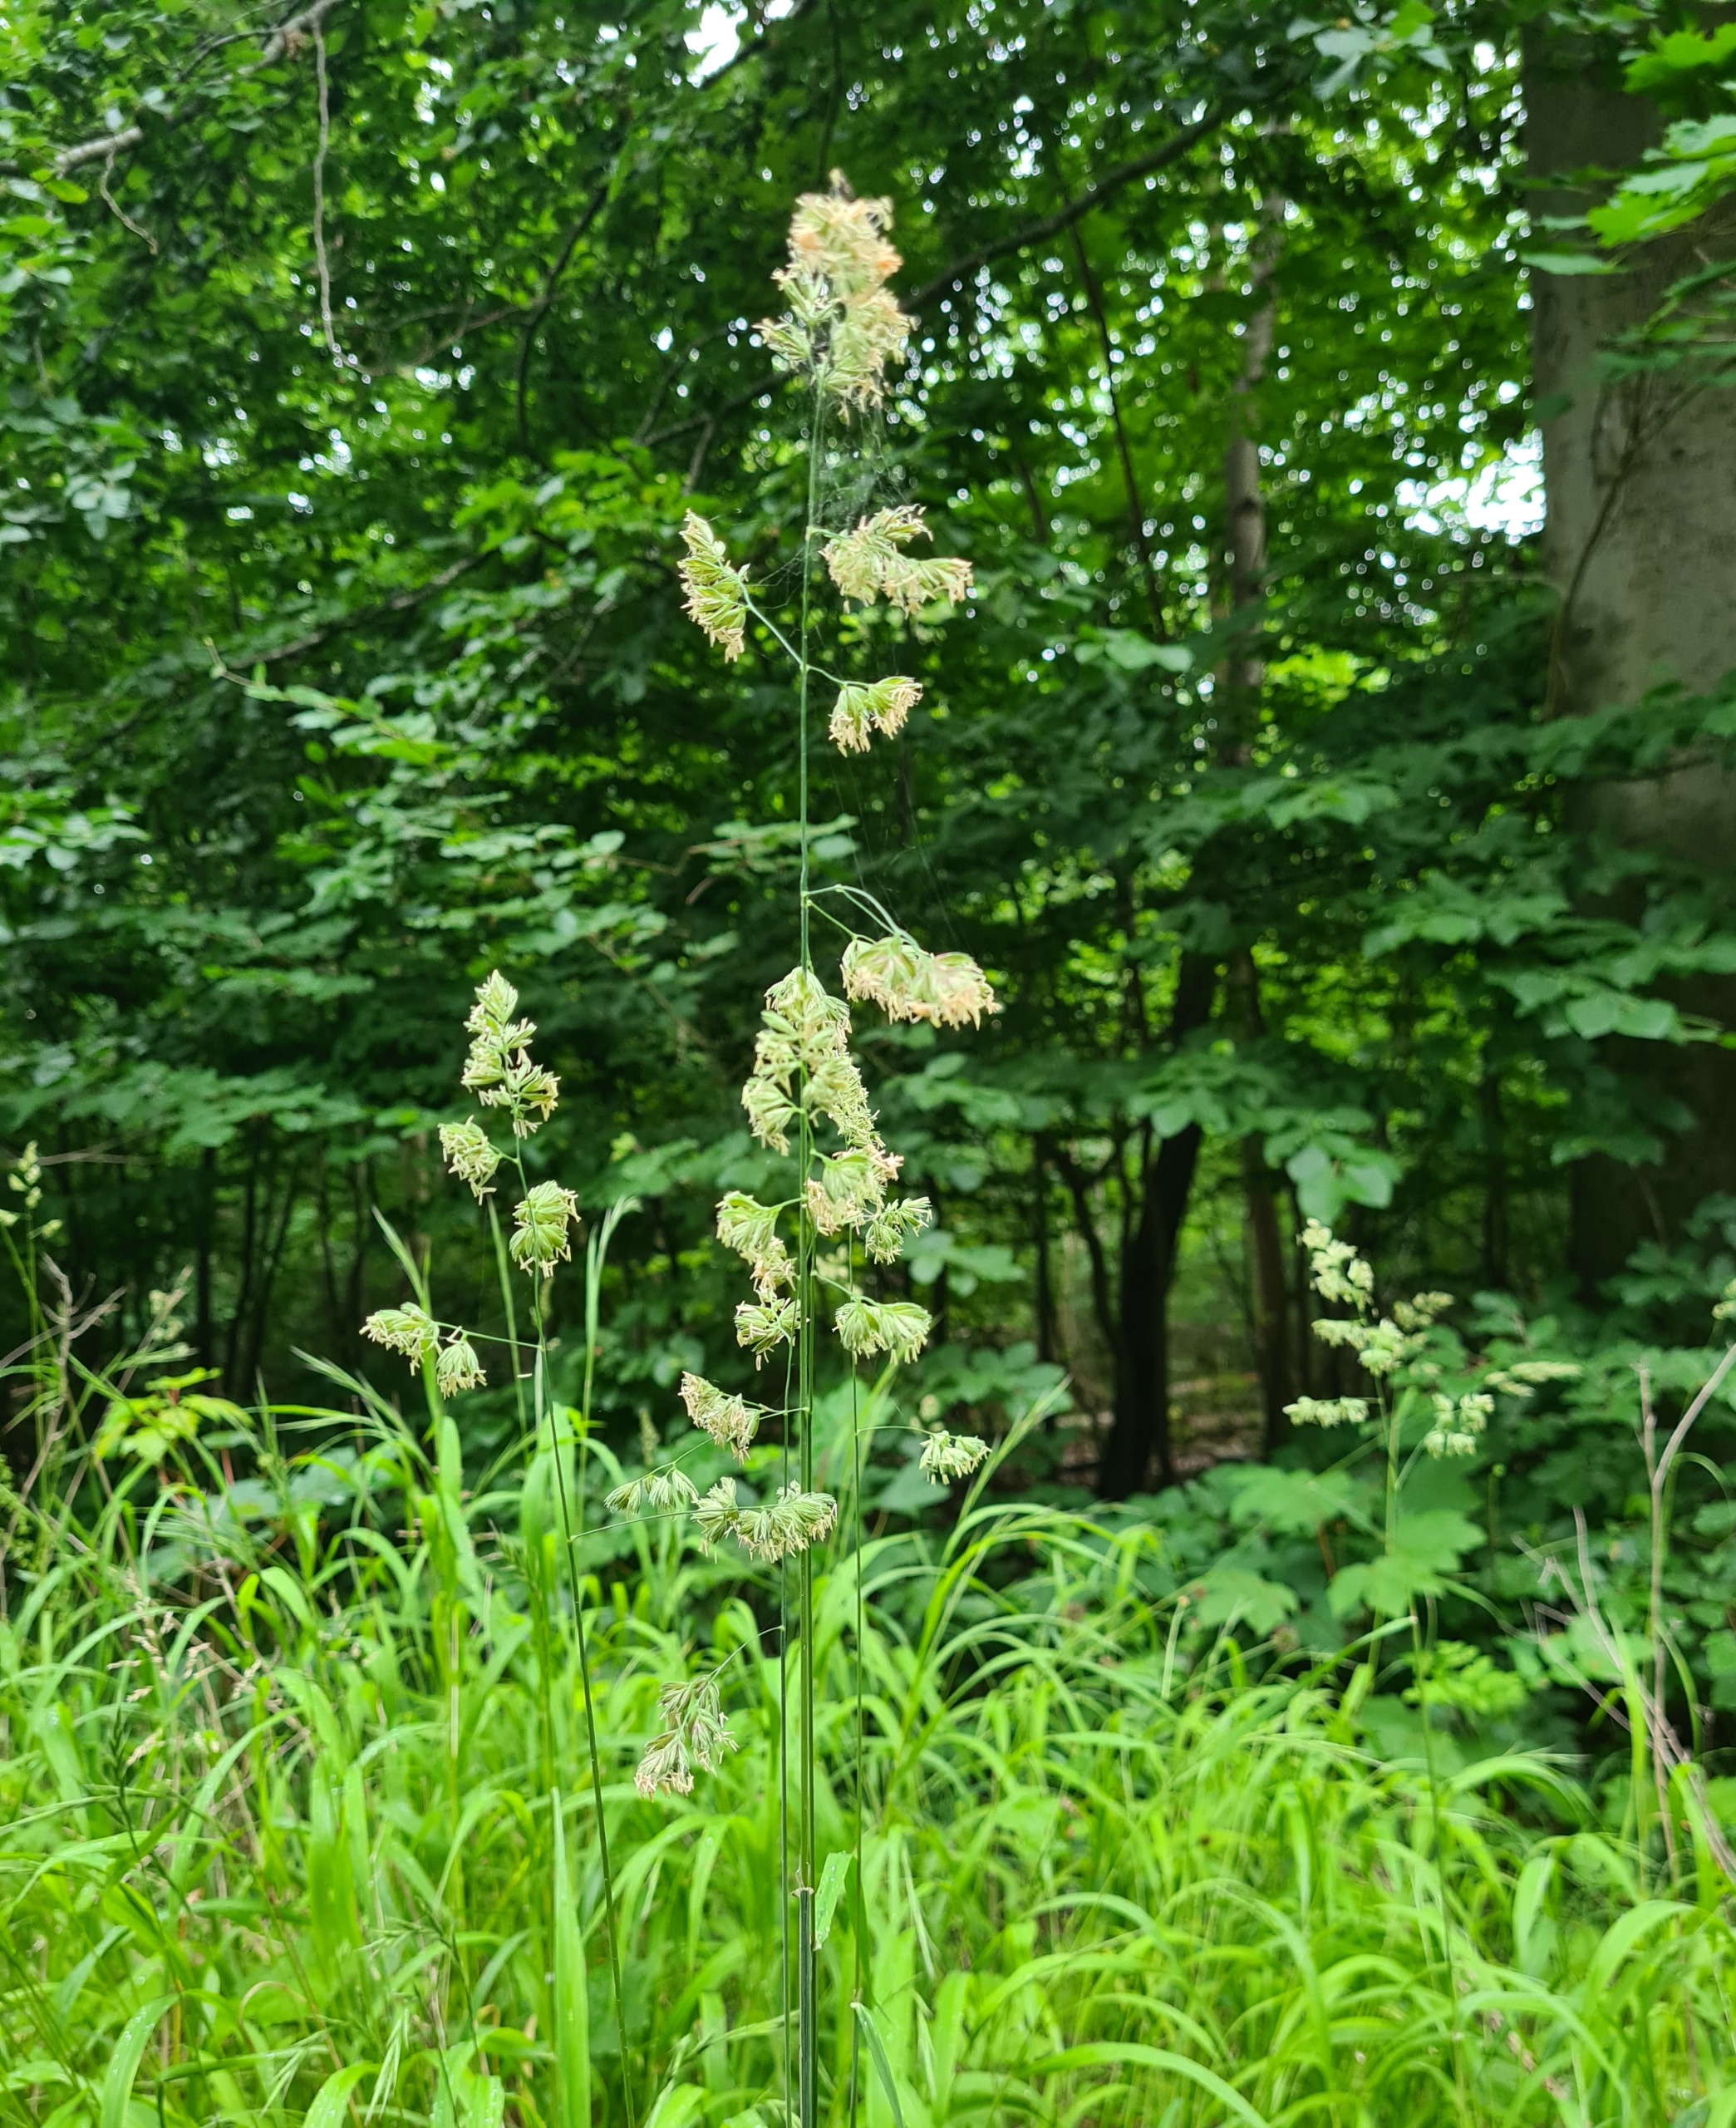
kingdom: Plantae
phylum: Tracheophyta
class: Liliopsida
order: Poales
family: Poaceae
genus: Dactylis
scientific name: Dactylis glomerata
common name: Almindelig hundegræs
